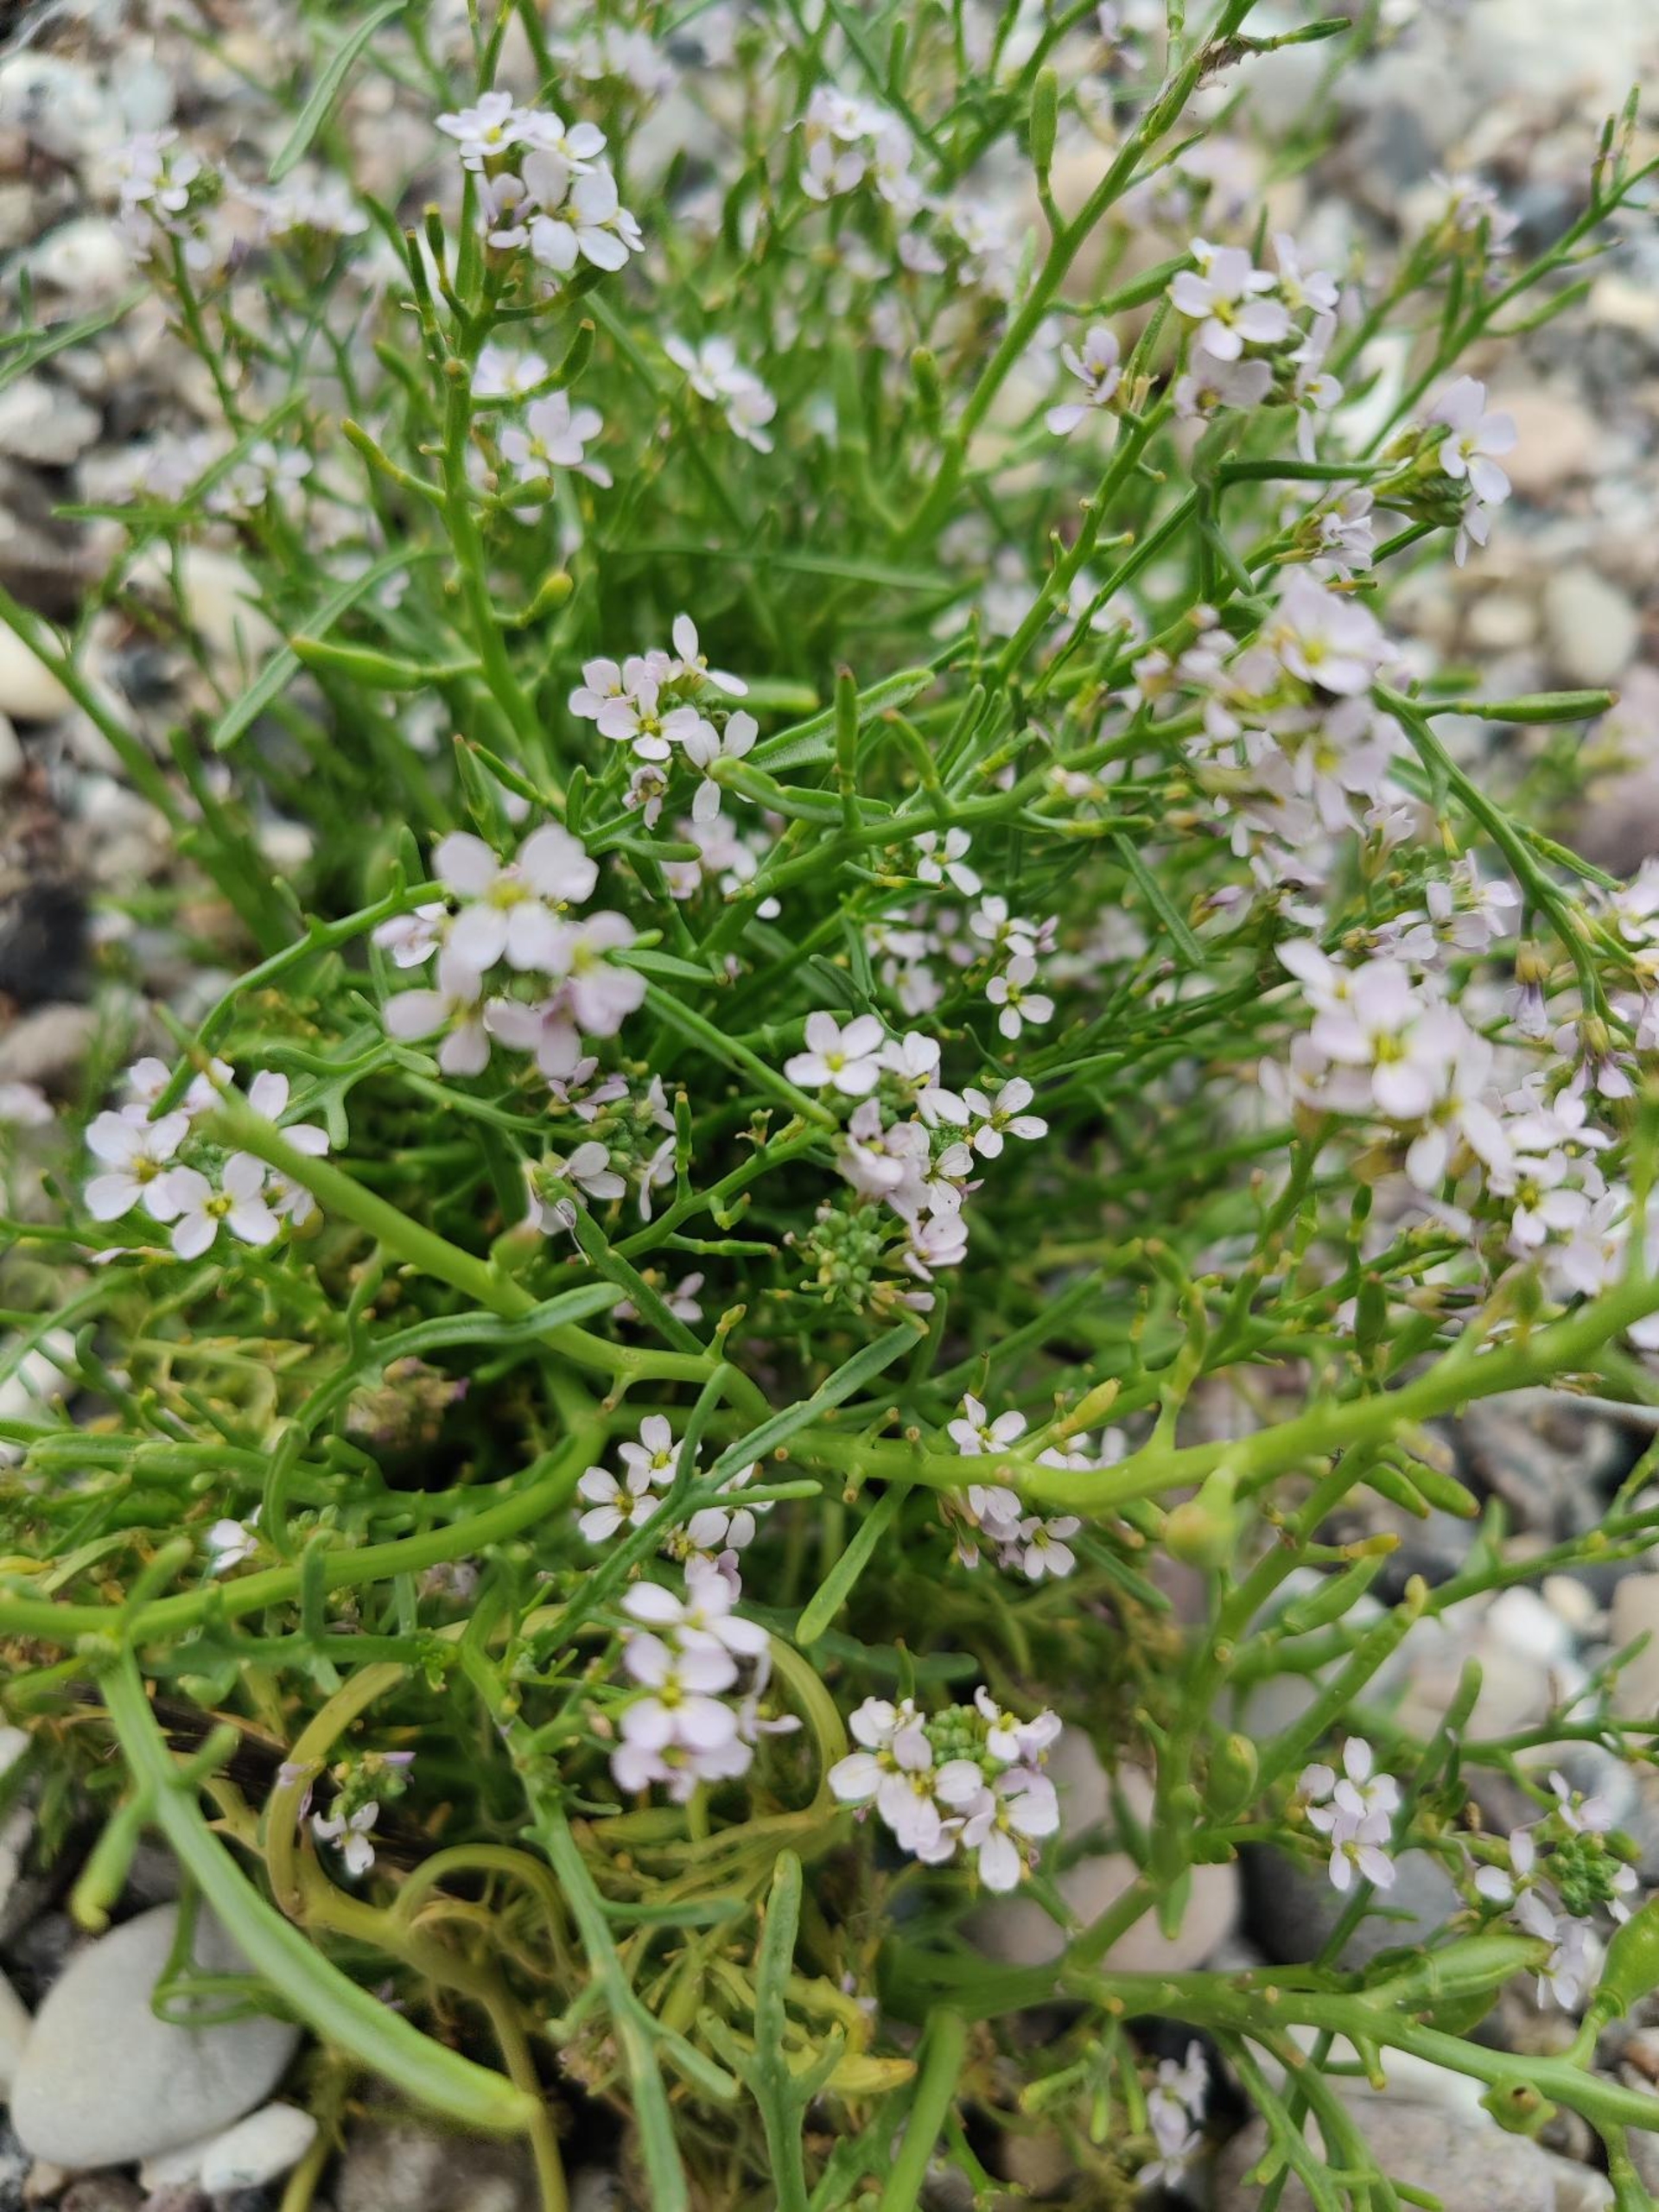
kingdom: Plantae
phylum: Tracheophyta
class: Magnoliopsida
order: Brassicales
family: Brassicaceae
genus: Cakile
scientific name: Cakile maritima
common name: Strandsennep
